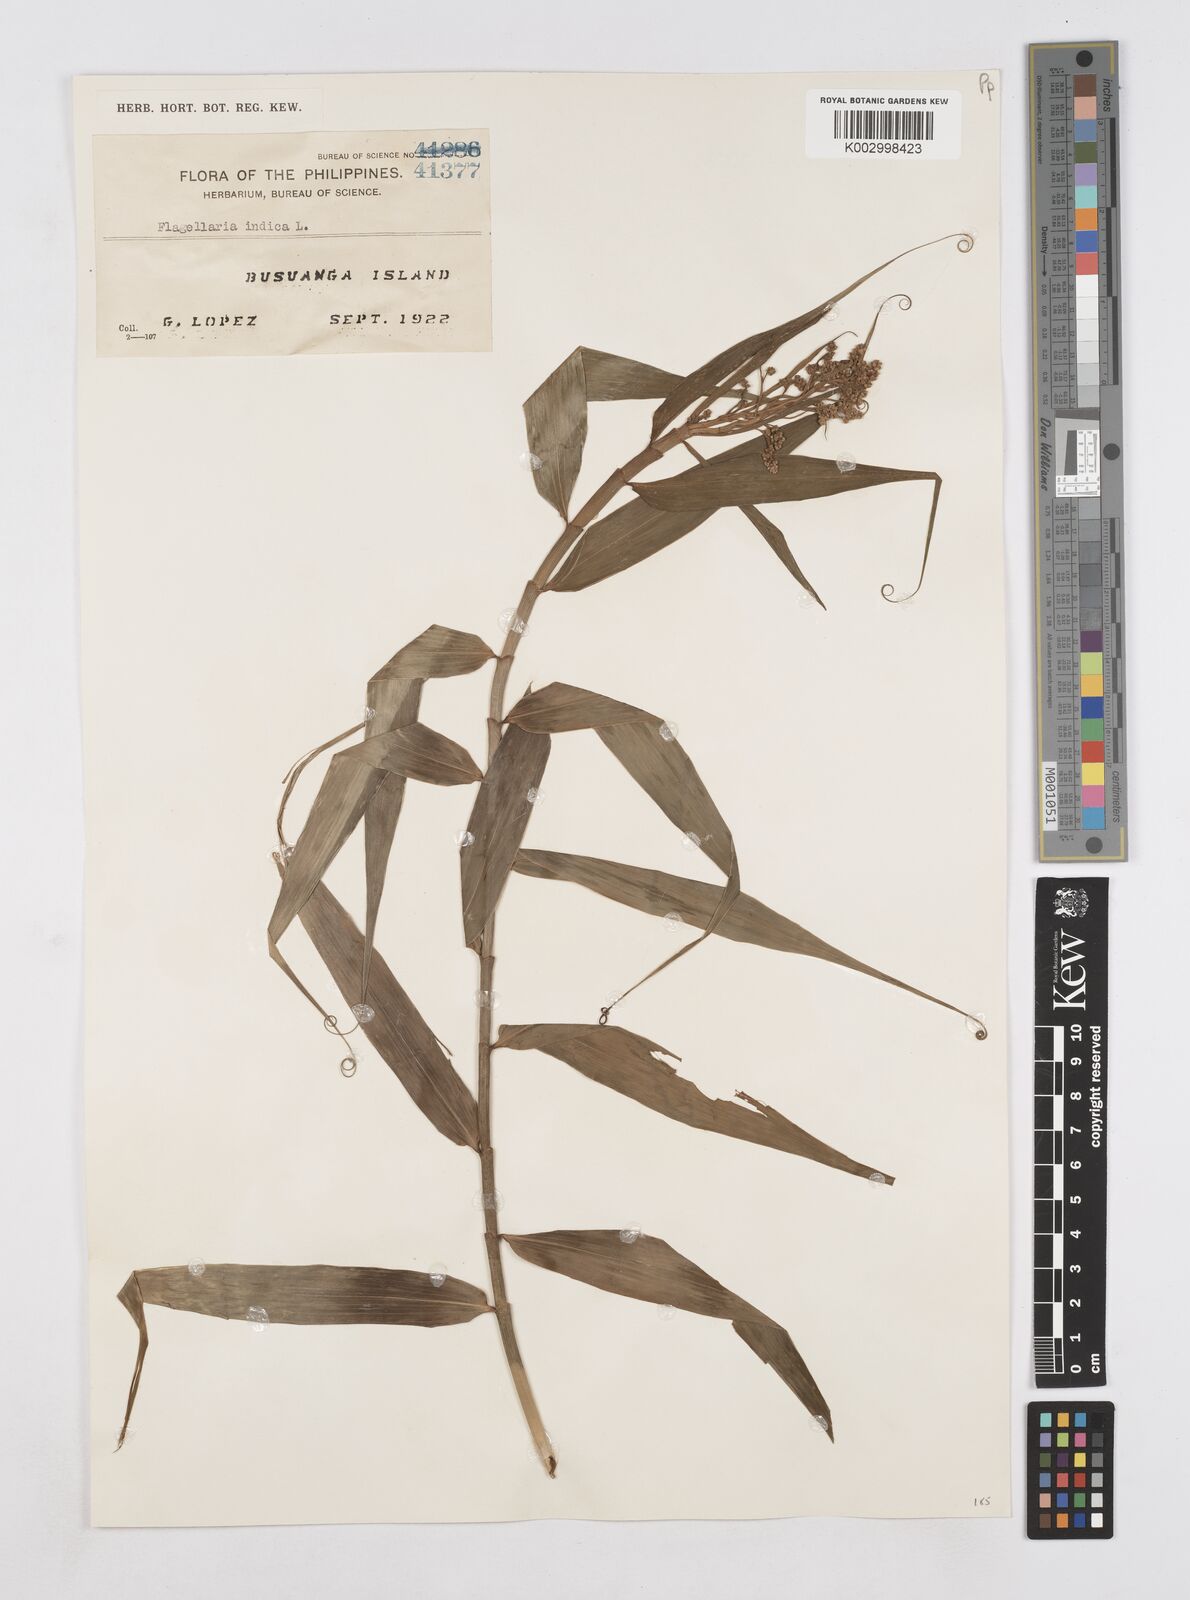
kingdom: Plantae
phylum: Tracheophyta
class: Liliopsida
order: Poales
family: Flagellariaceae
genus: Flagellaria
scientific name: Flagellaria indica
